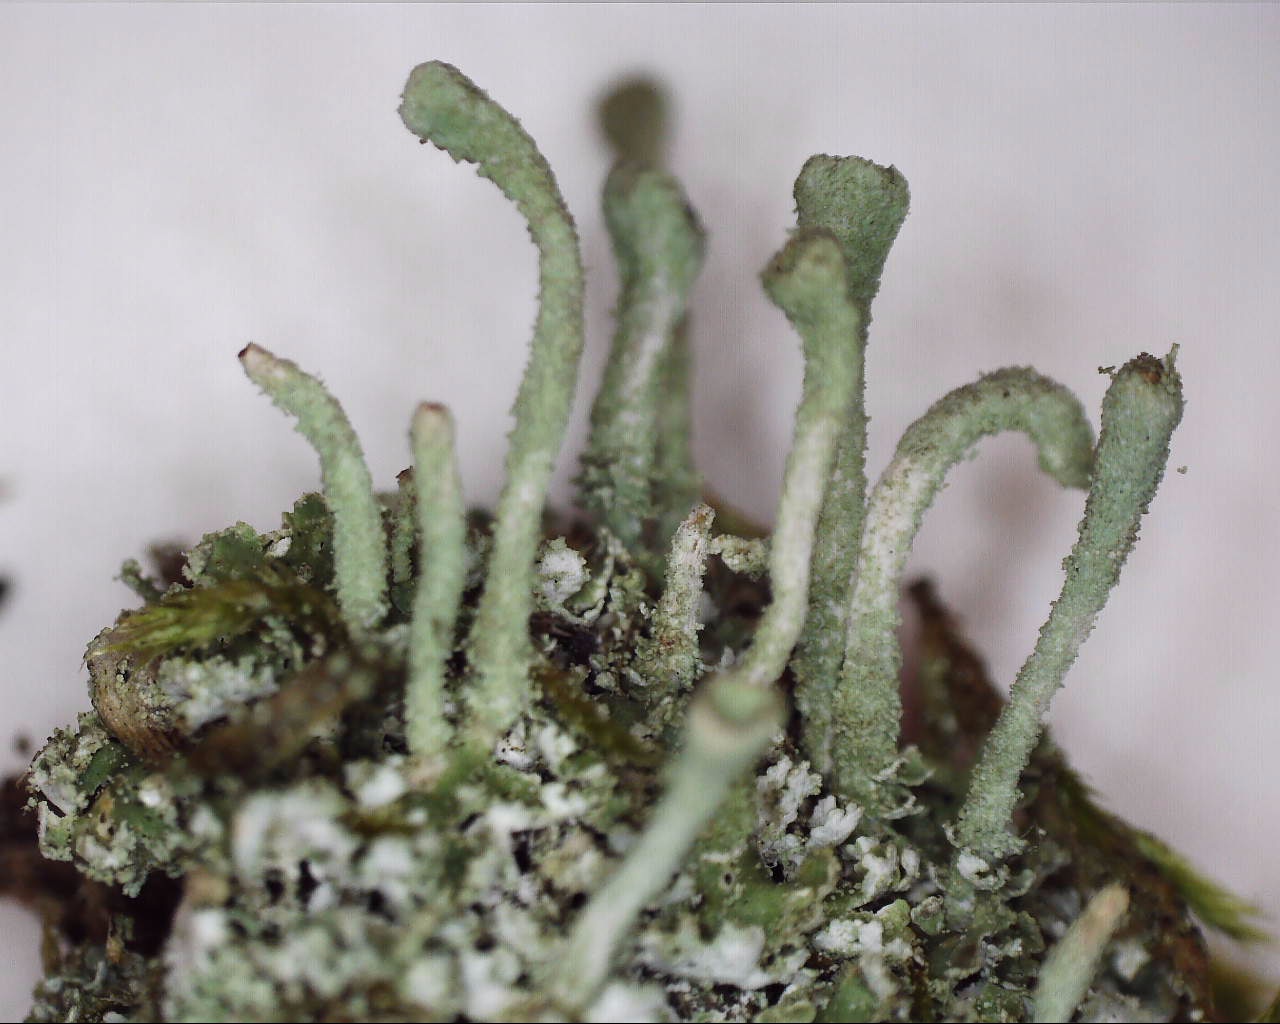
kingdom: Fungi
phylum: Ascomycota
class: Lecanoromycetes
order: Lecanorales
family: Cladoniaceae
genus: Cladonia
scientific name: Cladonia ochrochlora
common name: stød-bægerlav
